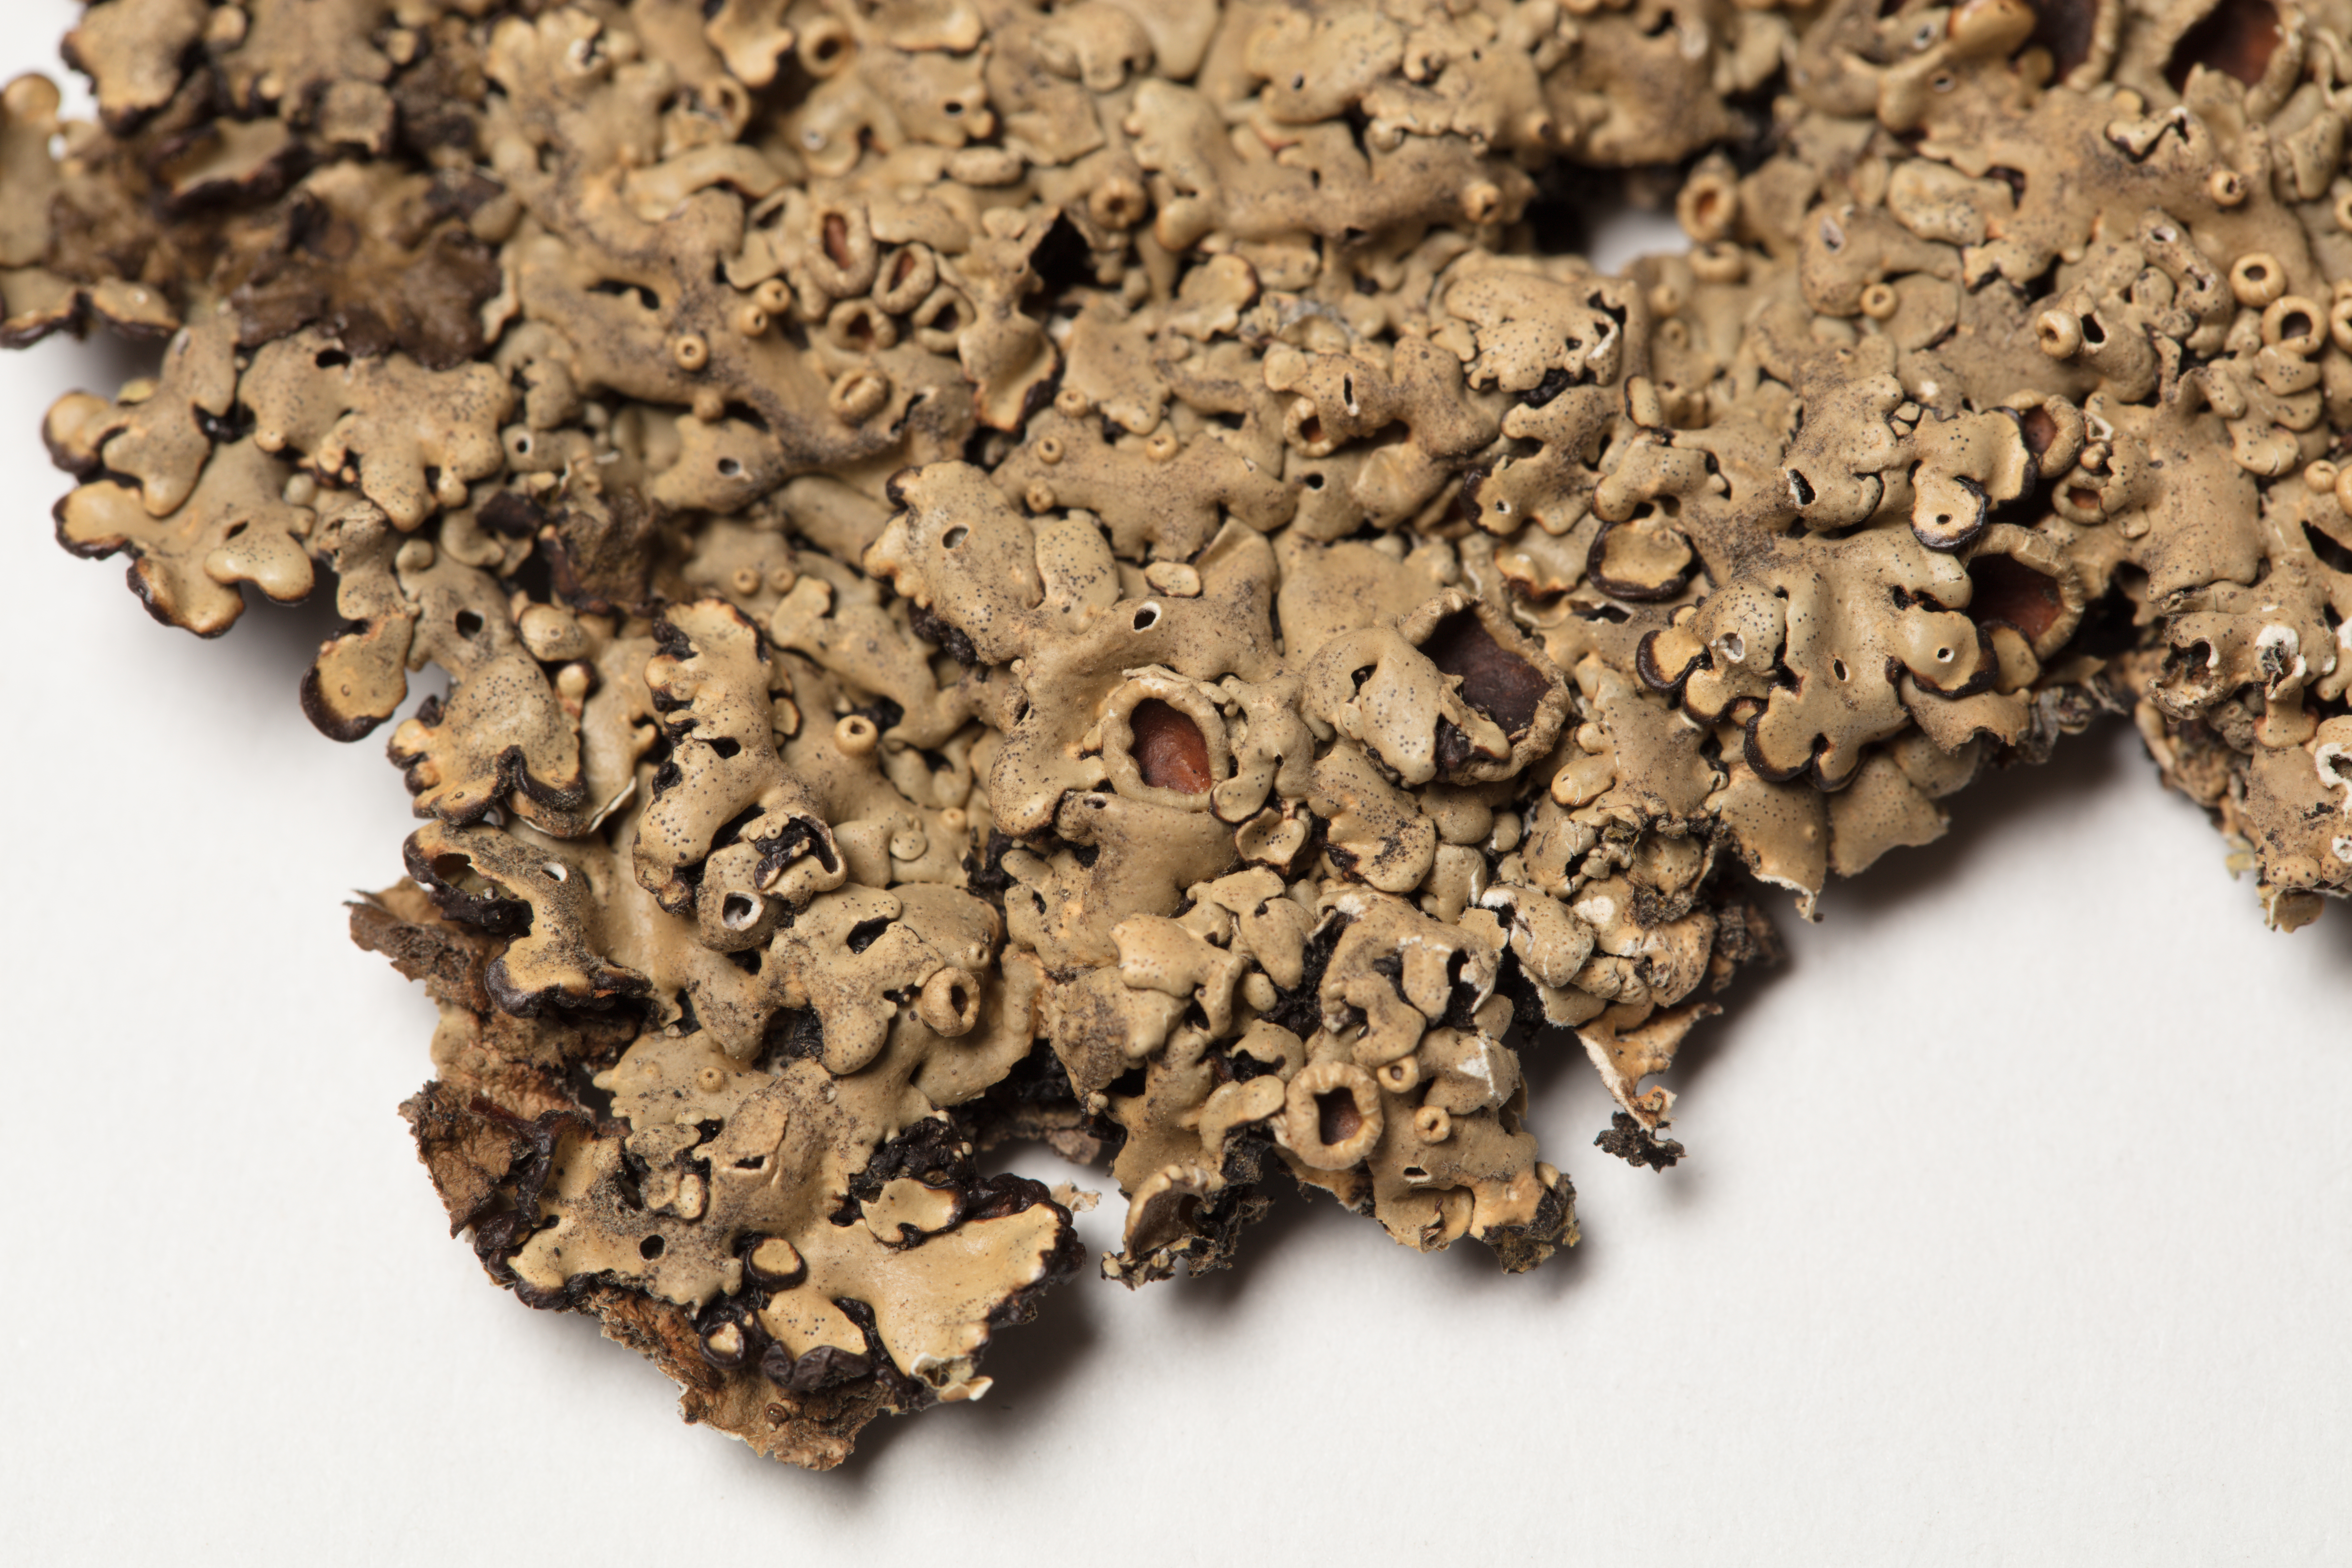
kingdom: Fungi
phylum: Ascomycota
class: Lecanoromycetes
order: Lecanorales
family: Parmeliaceae
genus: Menegazzia
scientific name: Menegazzia
